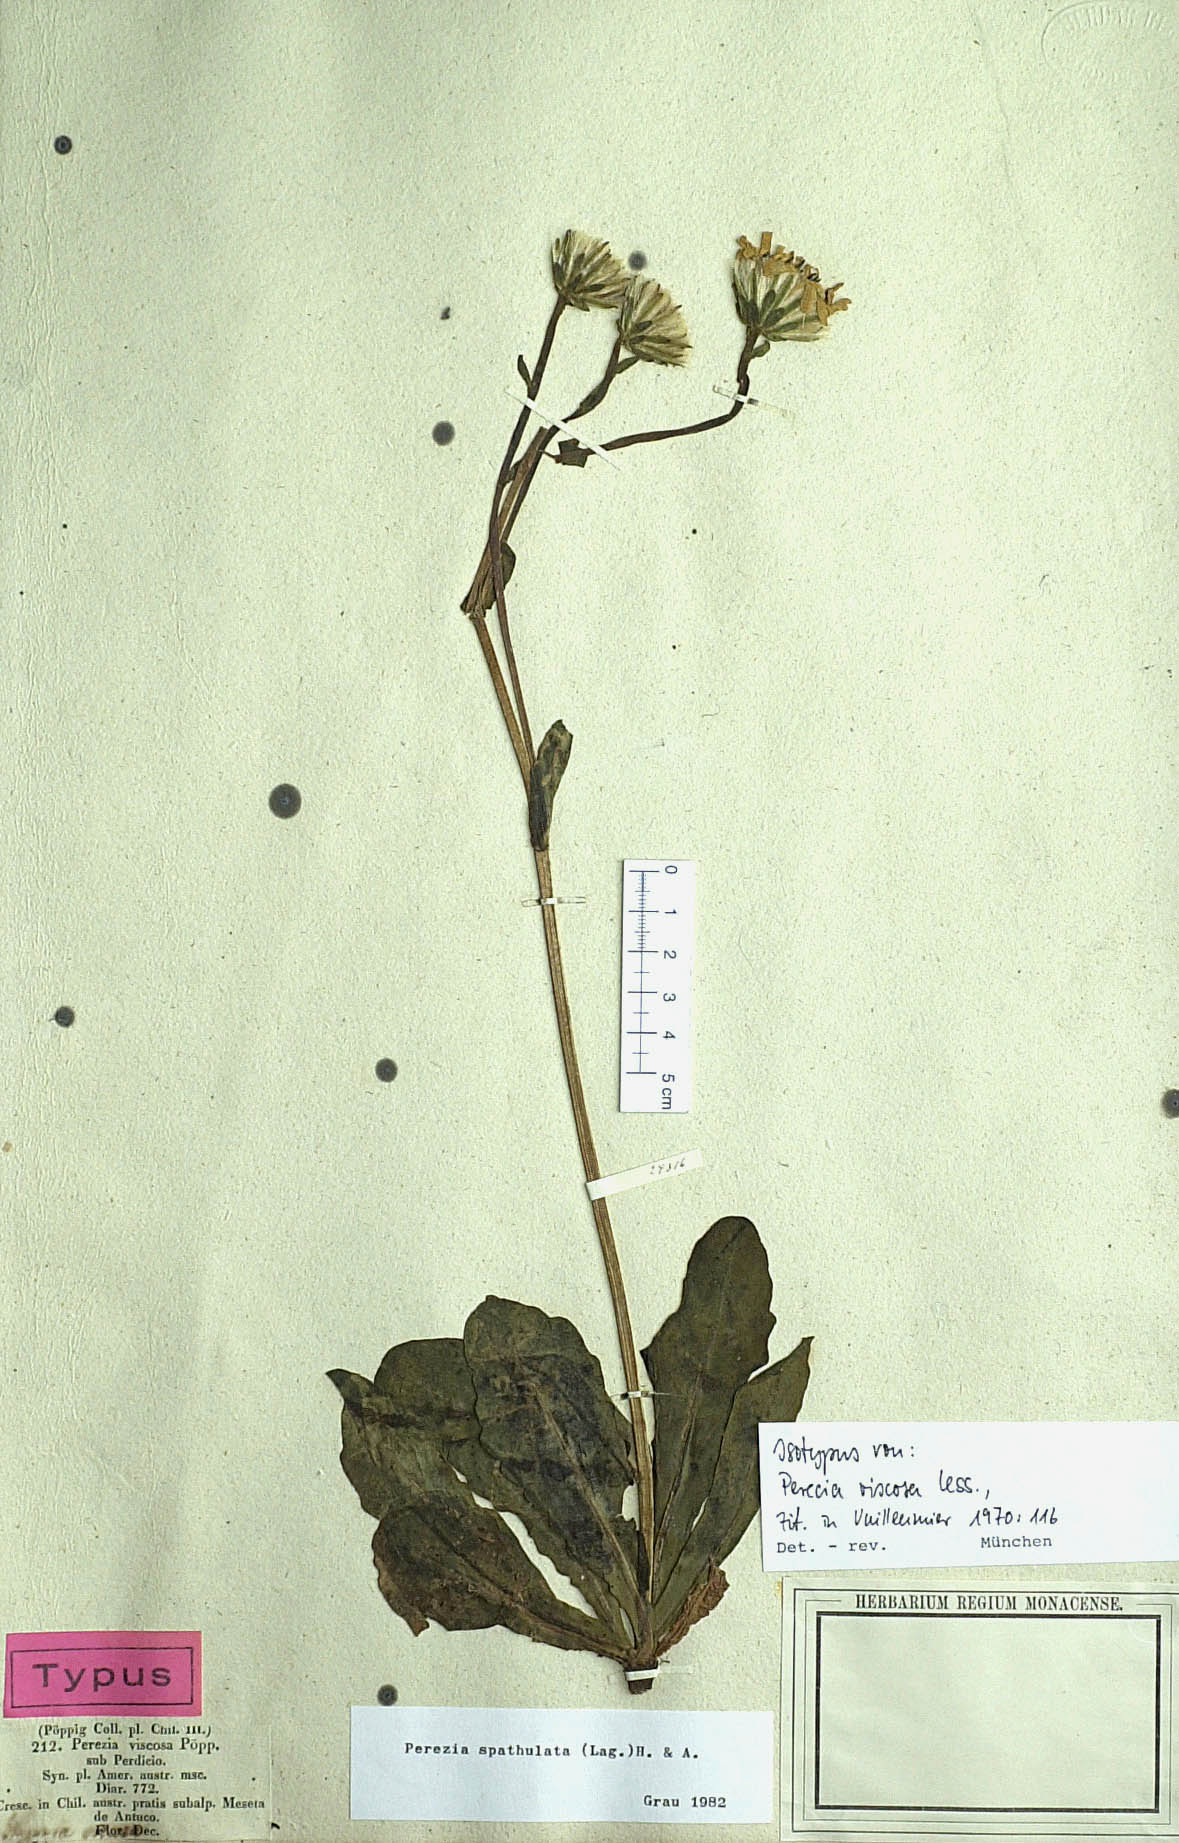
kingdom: Plantae
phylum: Tracheophyta
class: Magnoliopsida
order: Asterales
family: Asteraceae
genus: Perezia
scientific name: Perezia spathulata
